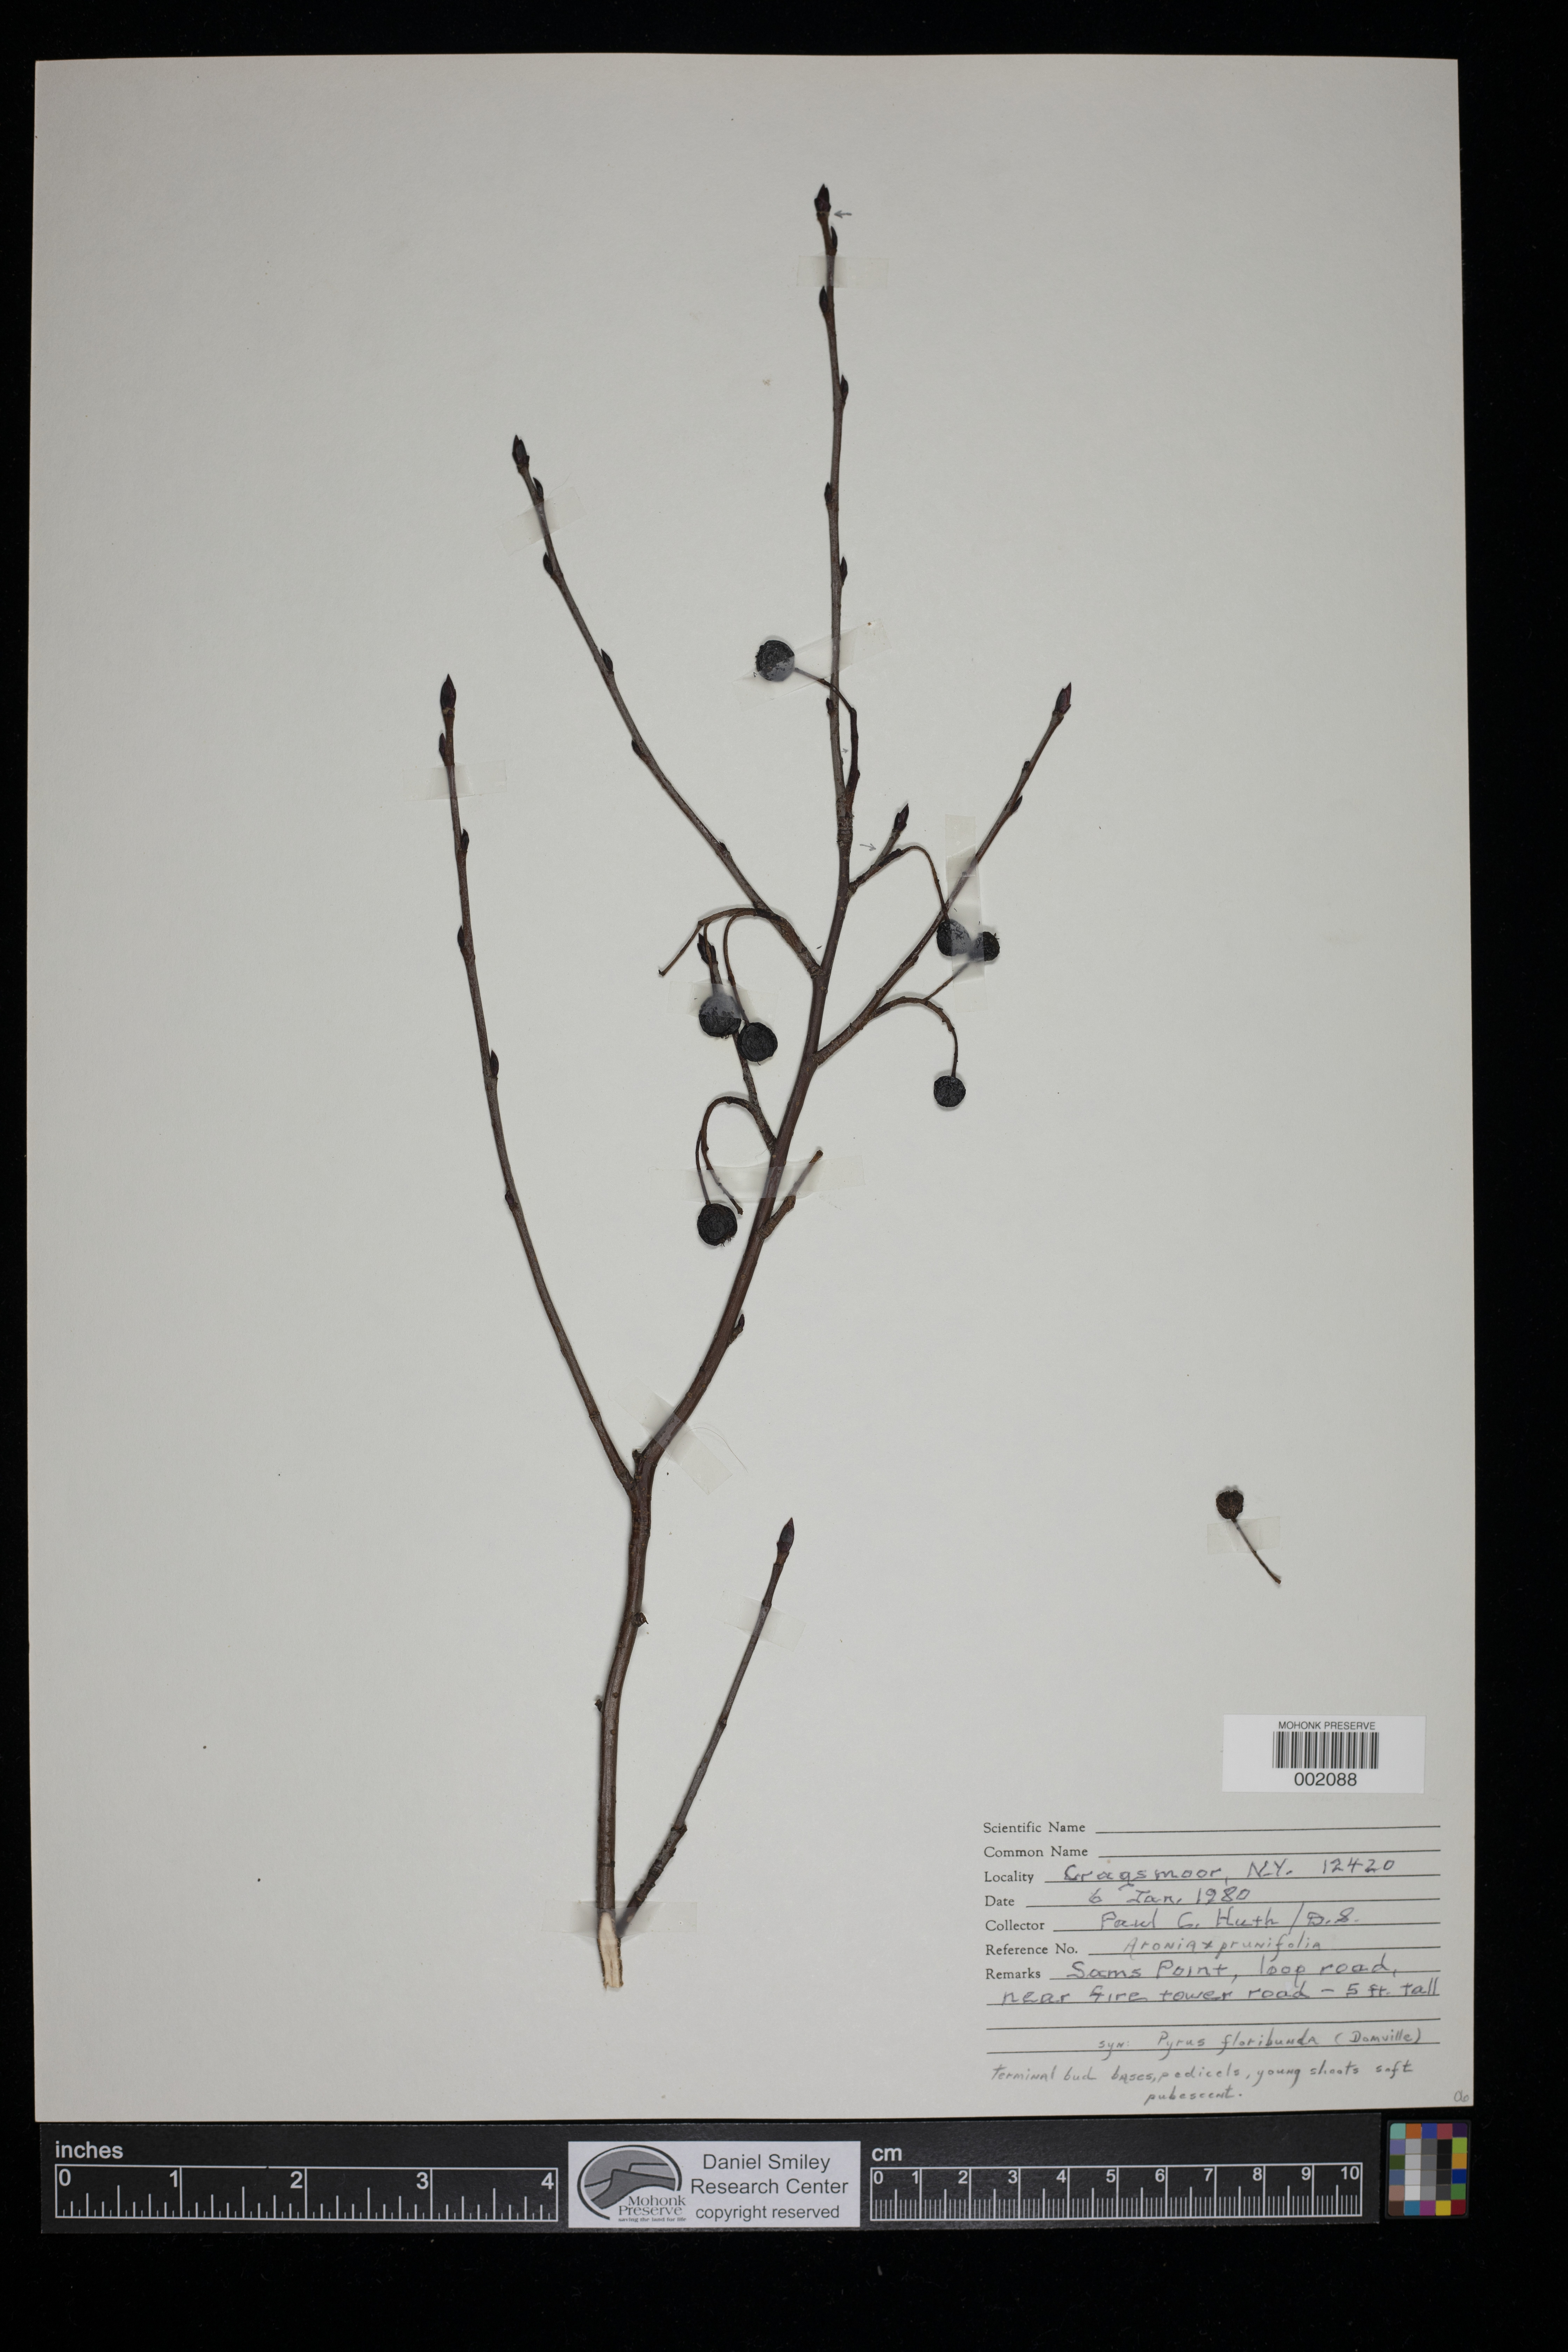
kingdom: Plantae
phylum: Tracheophyta
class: Magnoliopsida
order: Rosales
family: Rosaceae
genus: Aronia
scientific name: Aronia prunifolia
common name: Purple chokeberry
